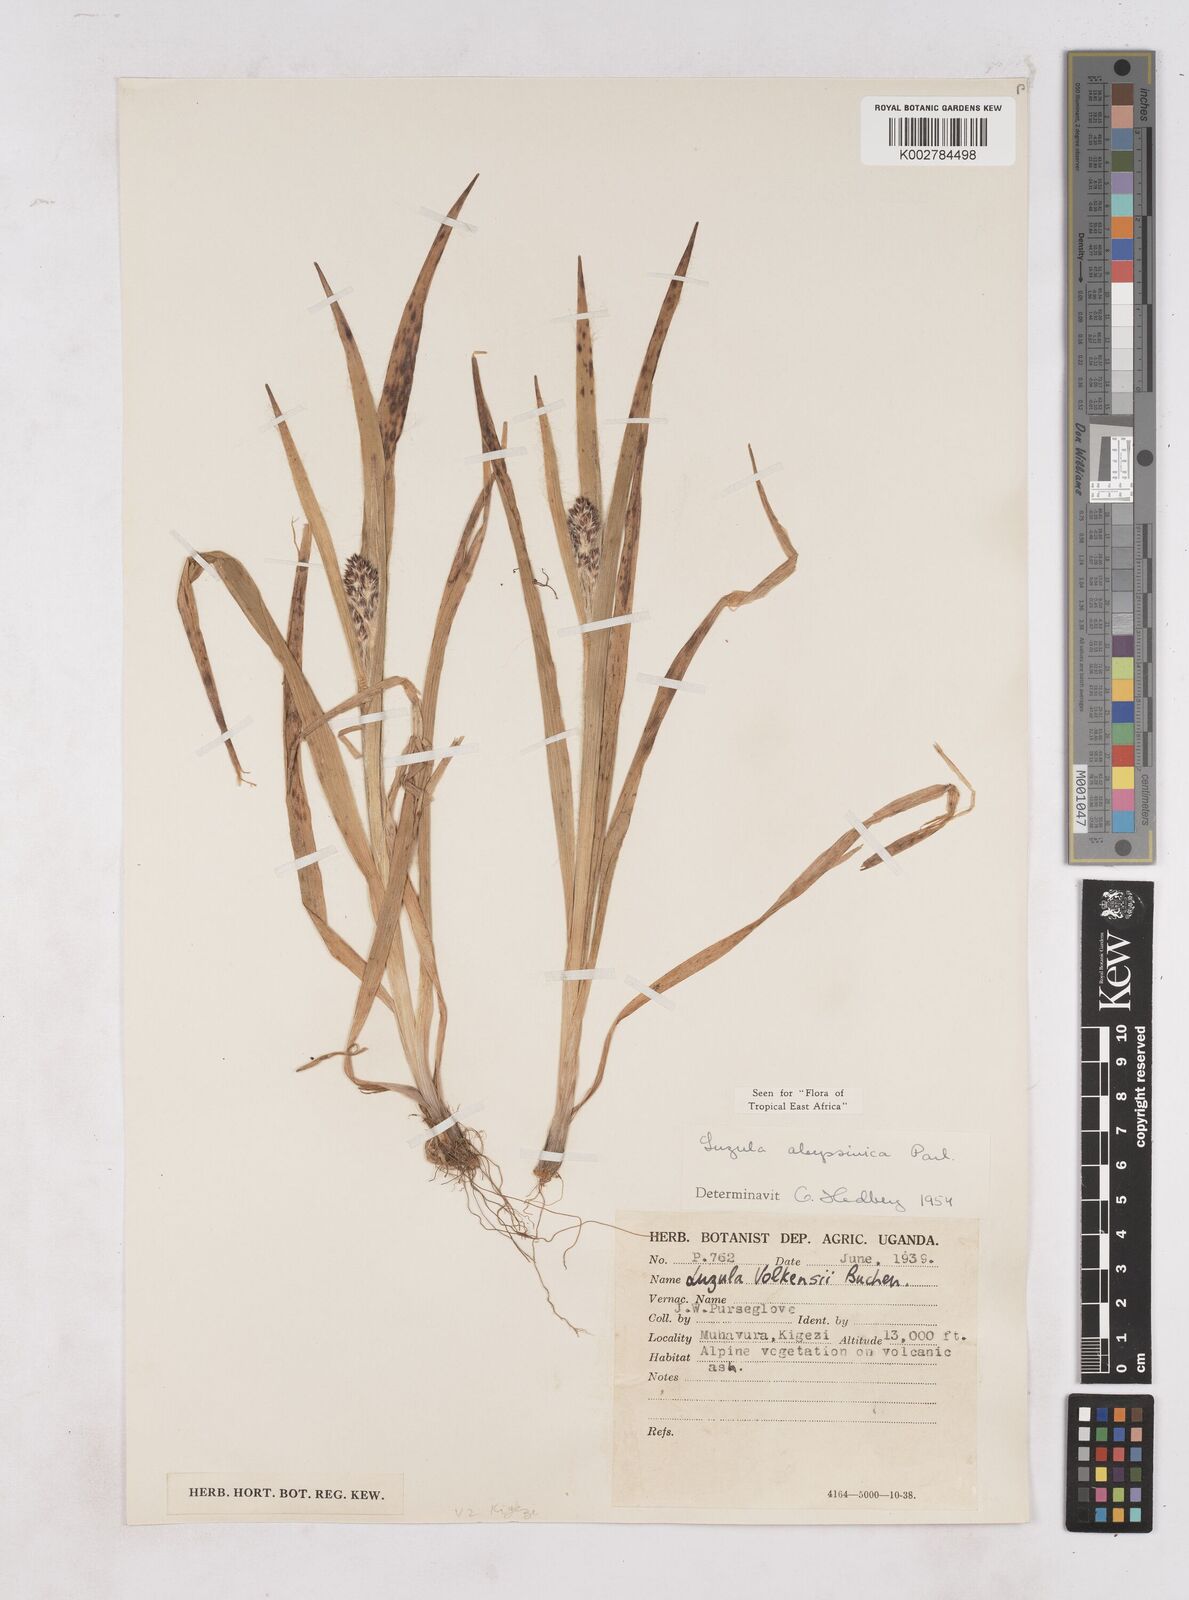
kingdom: Plantae
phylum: Tracheophyta
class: Liliopsida
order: Poales
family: Juncaceae
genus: Luzula
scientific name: Luzula abyssinica
